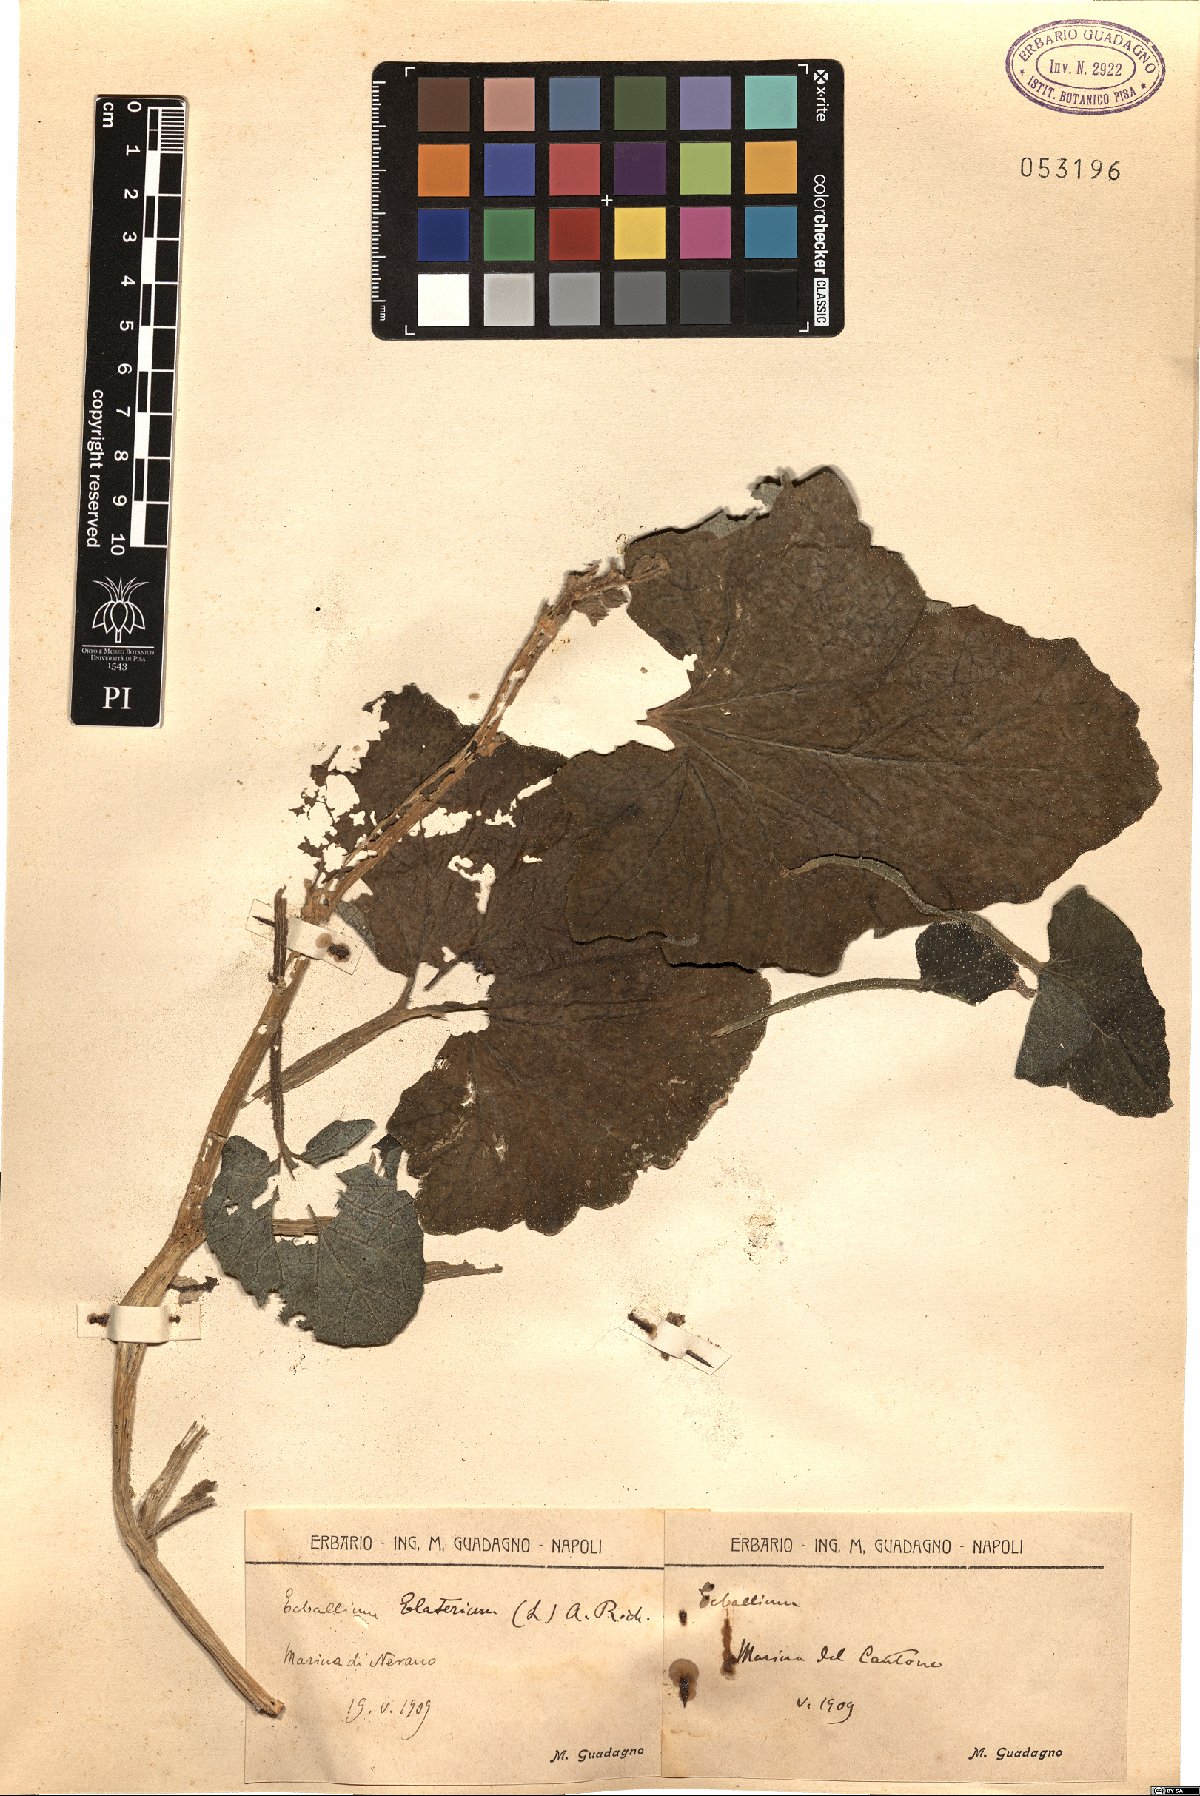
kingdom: Plantae
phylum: Tracheophyta
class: Magnoliopsida
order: Cucurbitales
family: Cucurbitaceae
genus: Ecballium
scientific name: Ecballium elaterium
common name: Squirting cucumber
